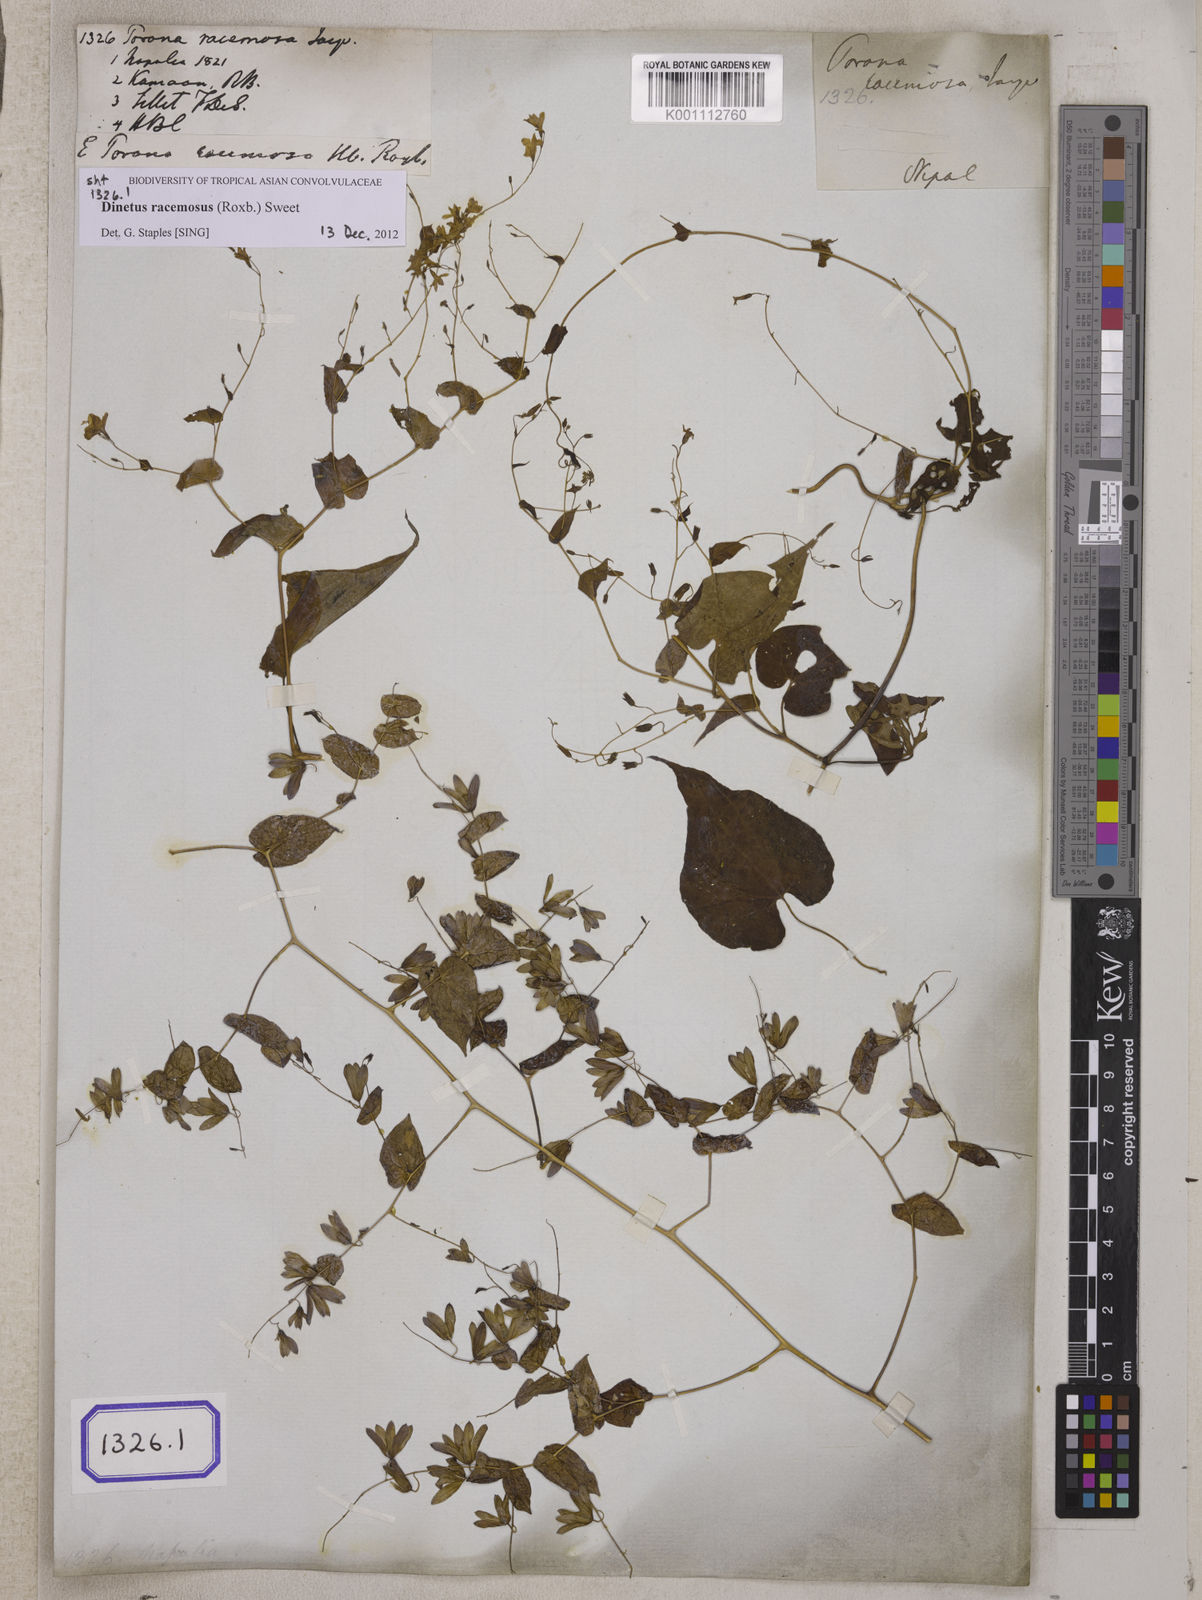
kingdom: Plantae
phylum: Tracheophyta
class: Magnoliopsida
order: Solanales
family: Convolvulaceae
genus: Porana
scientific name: Porana
